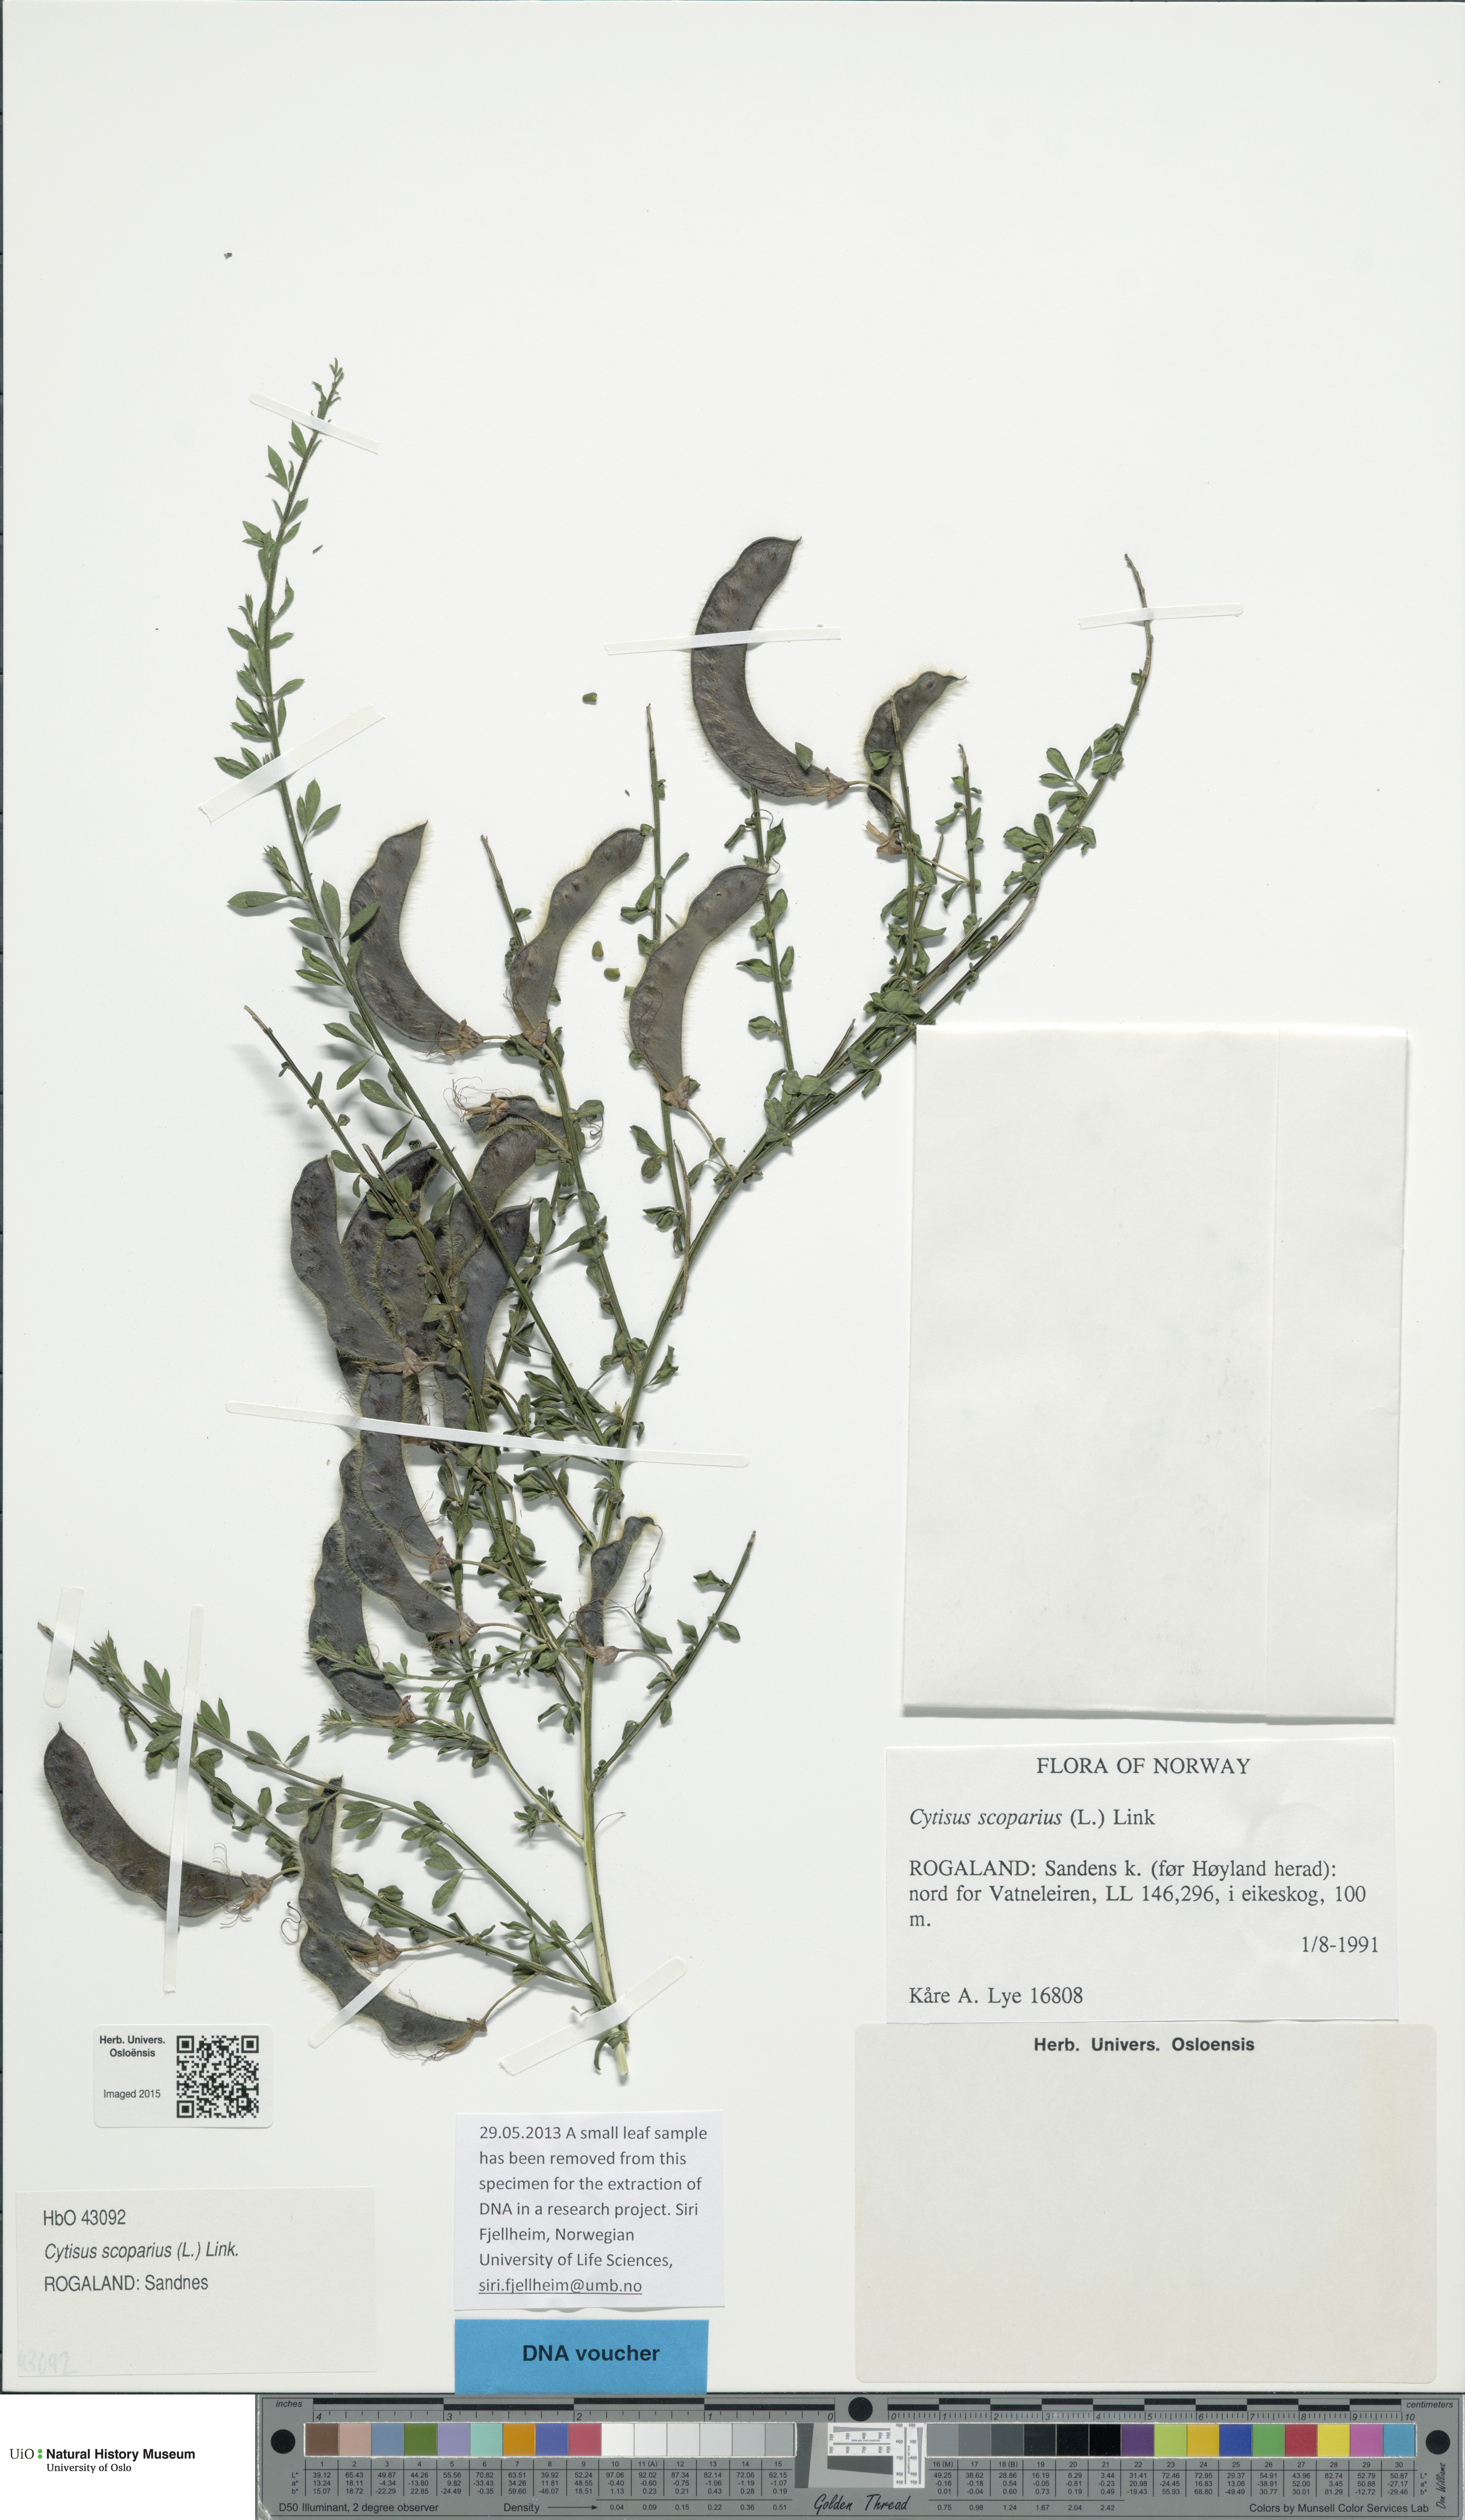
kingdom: Plantae
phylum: Tracheophyta
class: Magnoliopsida
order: Fabales
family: Fabaceae
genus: Cytisus
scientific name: Cytisus scoparius
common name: Scotch broom
